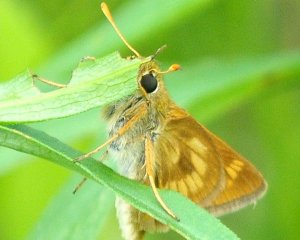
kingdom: Animalia
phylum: Arthropoda
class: Insecta
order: Lepidoptera
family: Hesperiidae
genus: Polites
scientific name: Polites
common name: Long Dash Skipper
